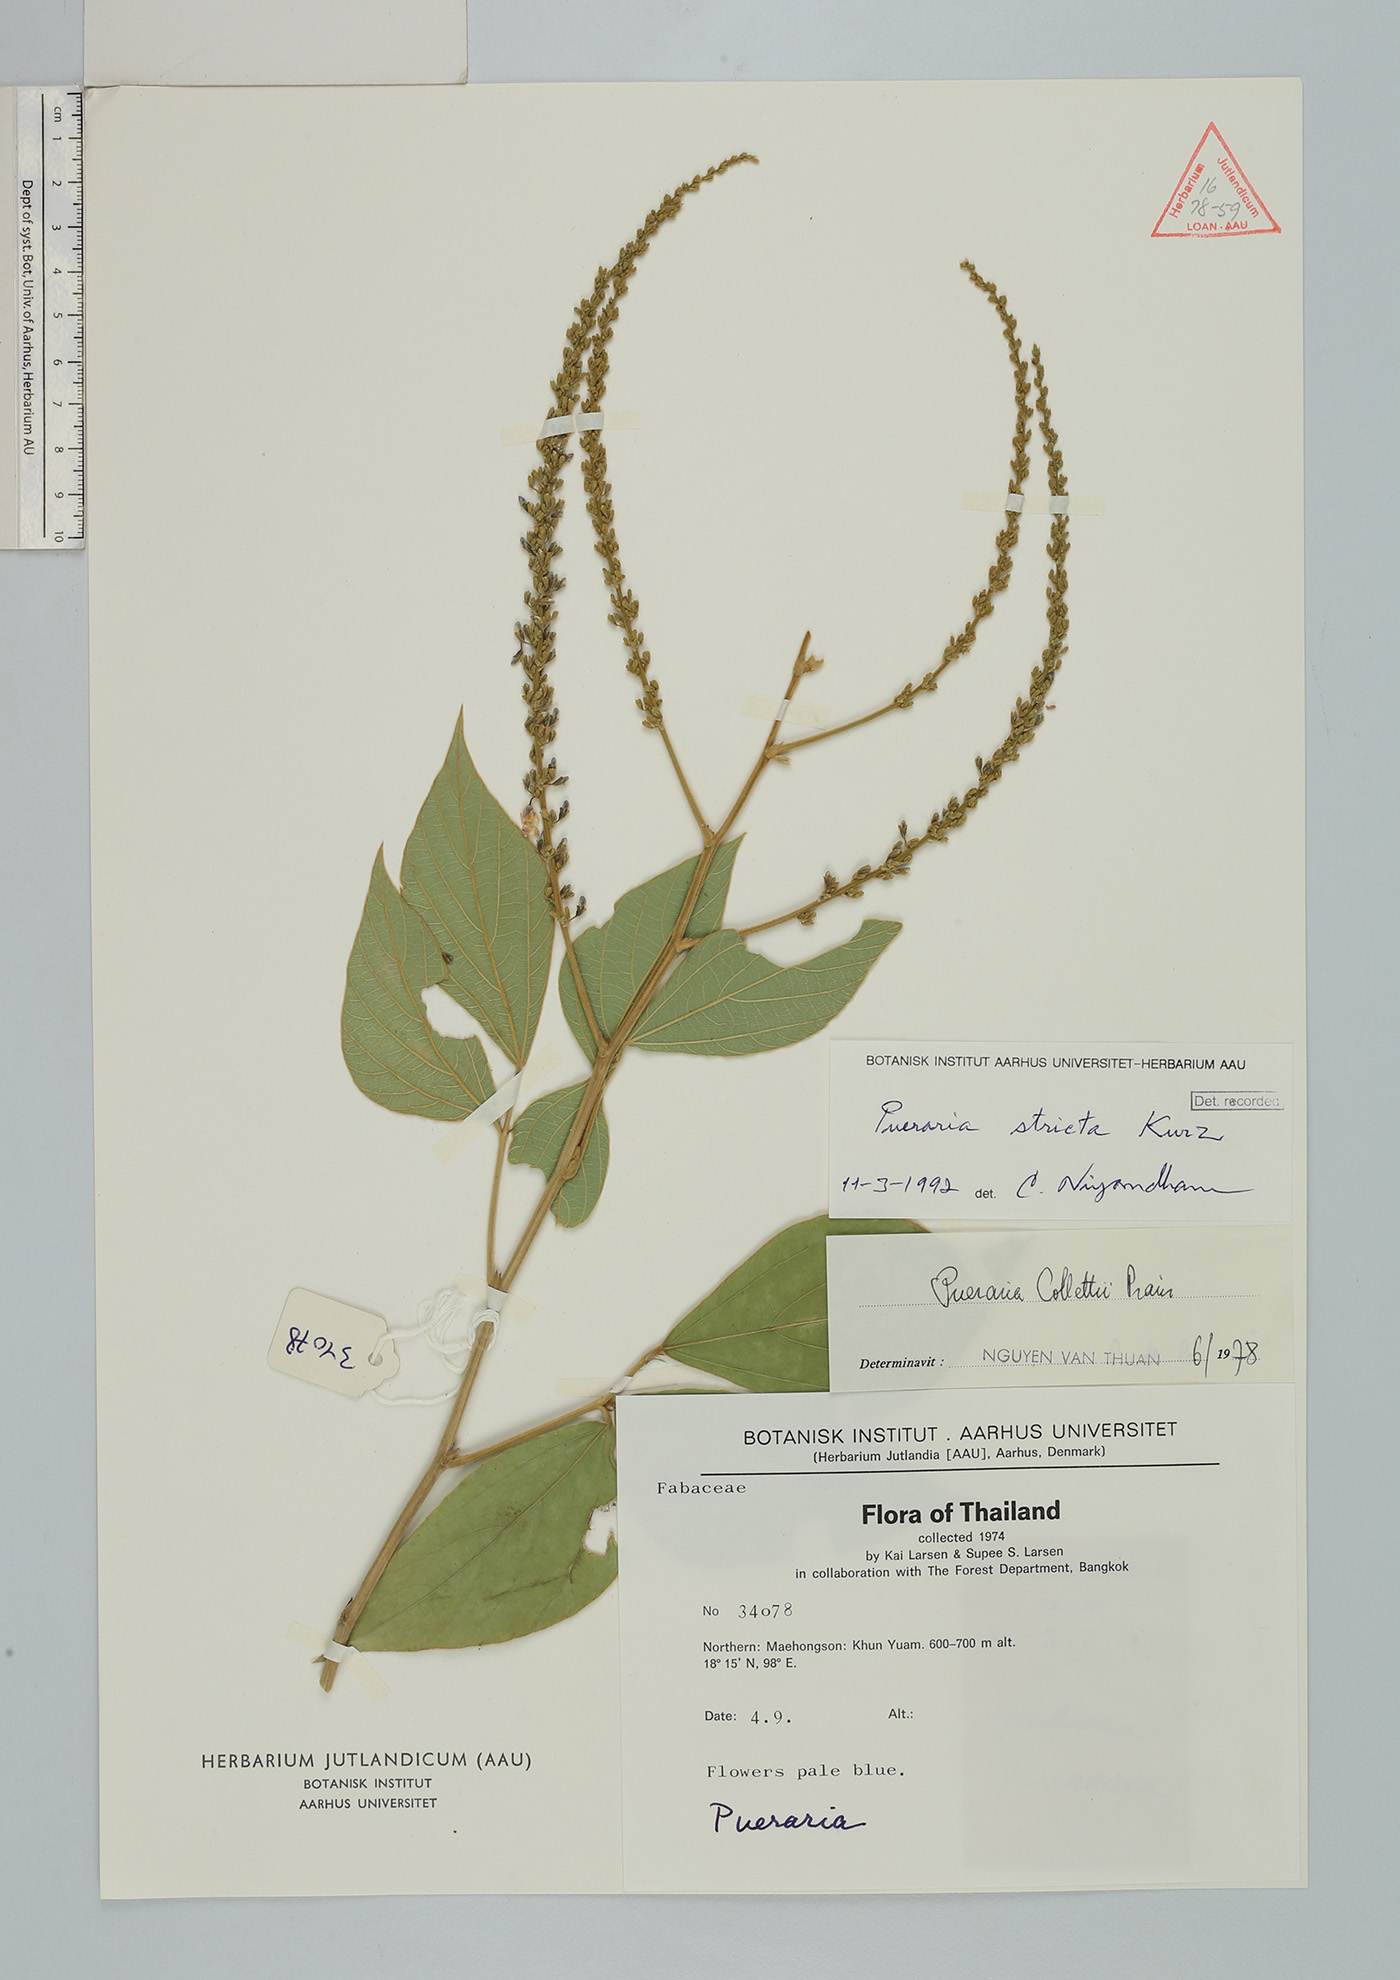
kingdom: Plantae
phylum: Tracheophyta
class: Magnoliopsida
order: Fabales
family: Fabaceae
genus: Teyleria
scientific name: Teyleria stricta
